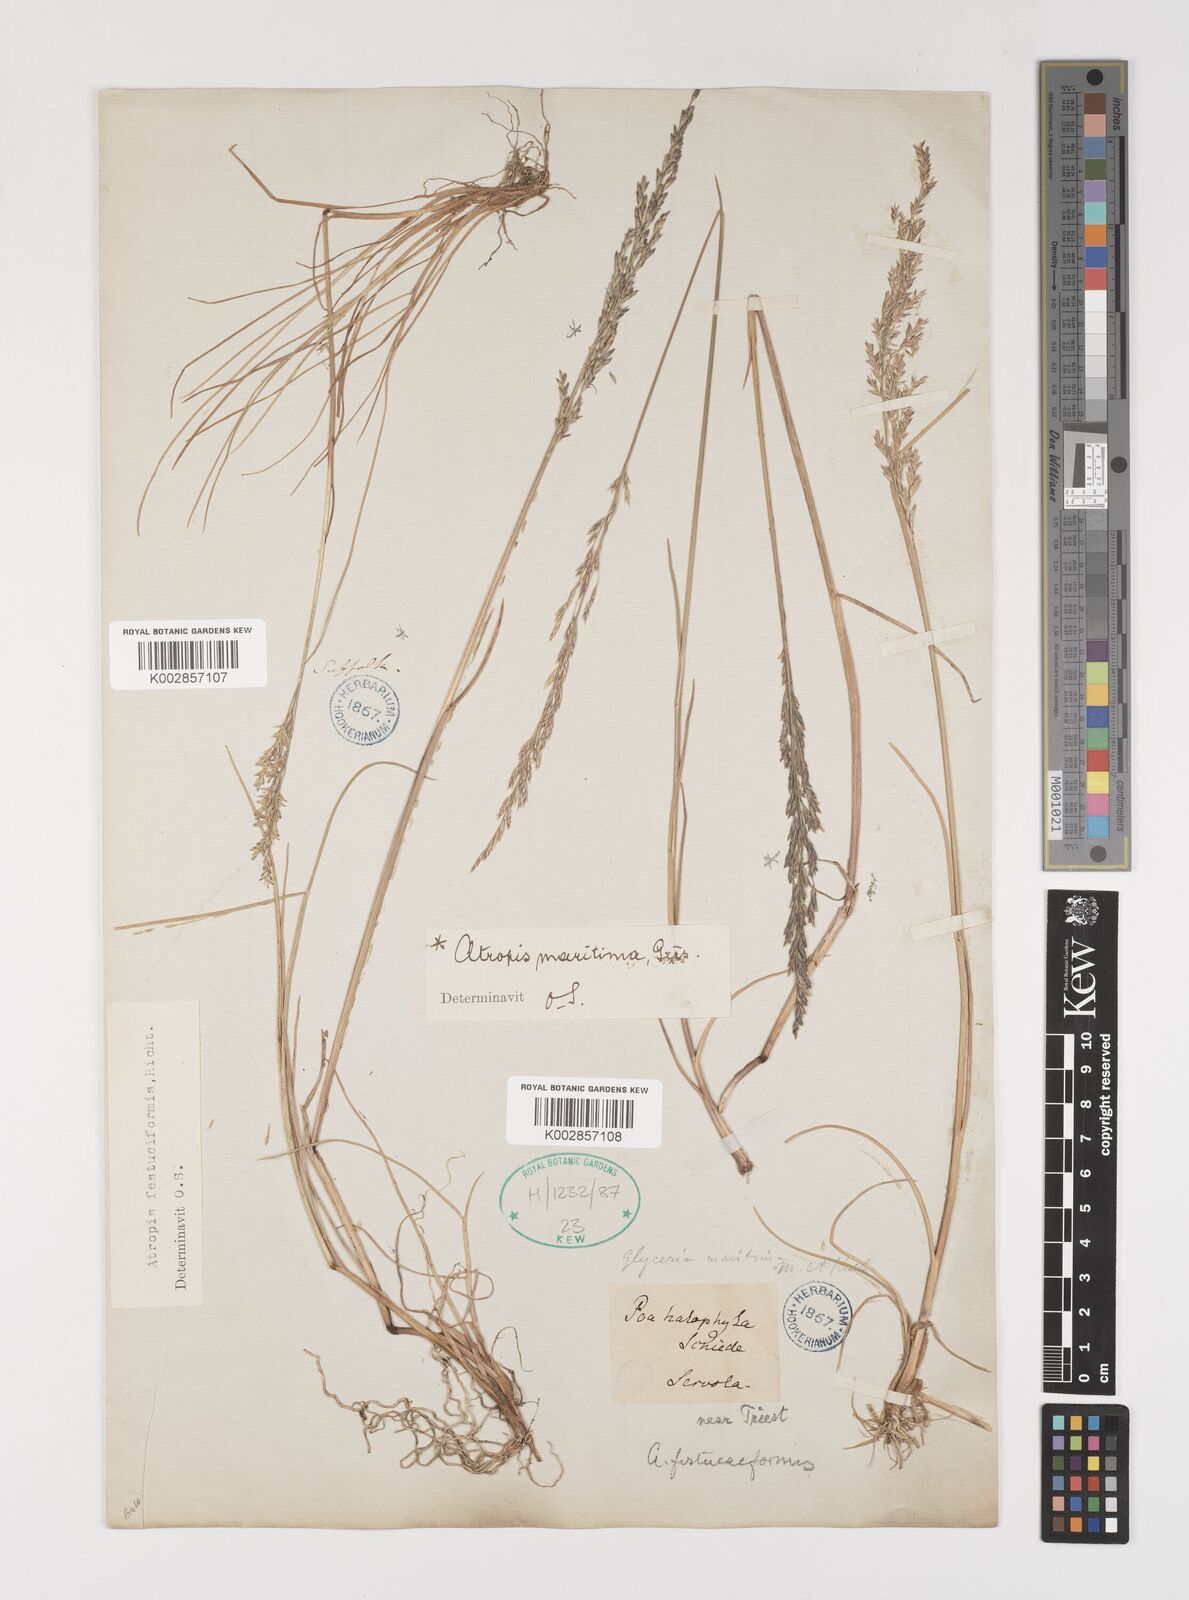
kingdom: Plantae
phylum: Tracheophyta
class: Liliopsida
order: Poales
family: Poaceae
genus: Puccinellia
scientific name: Puccinellia maritima
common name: Common saltmarsh grass
